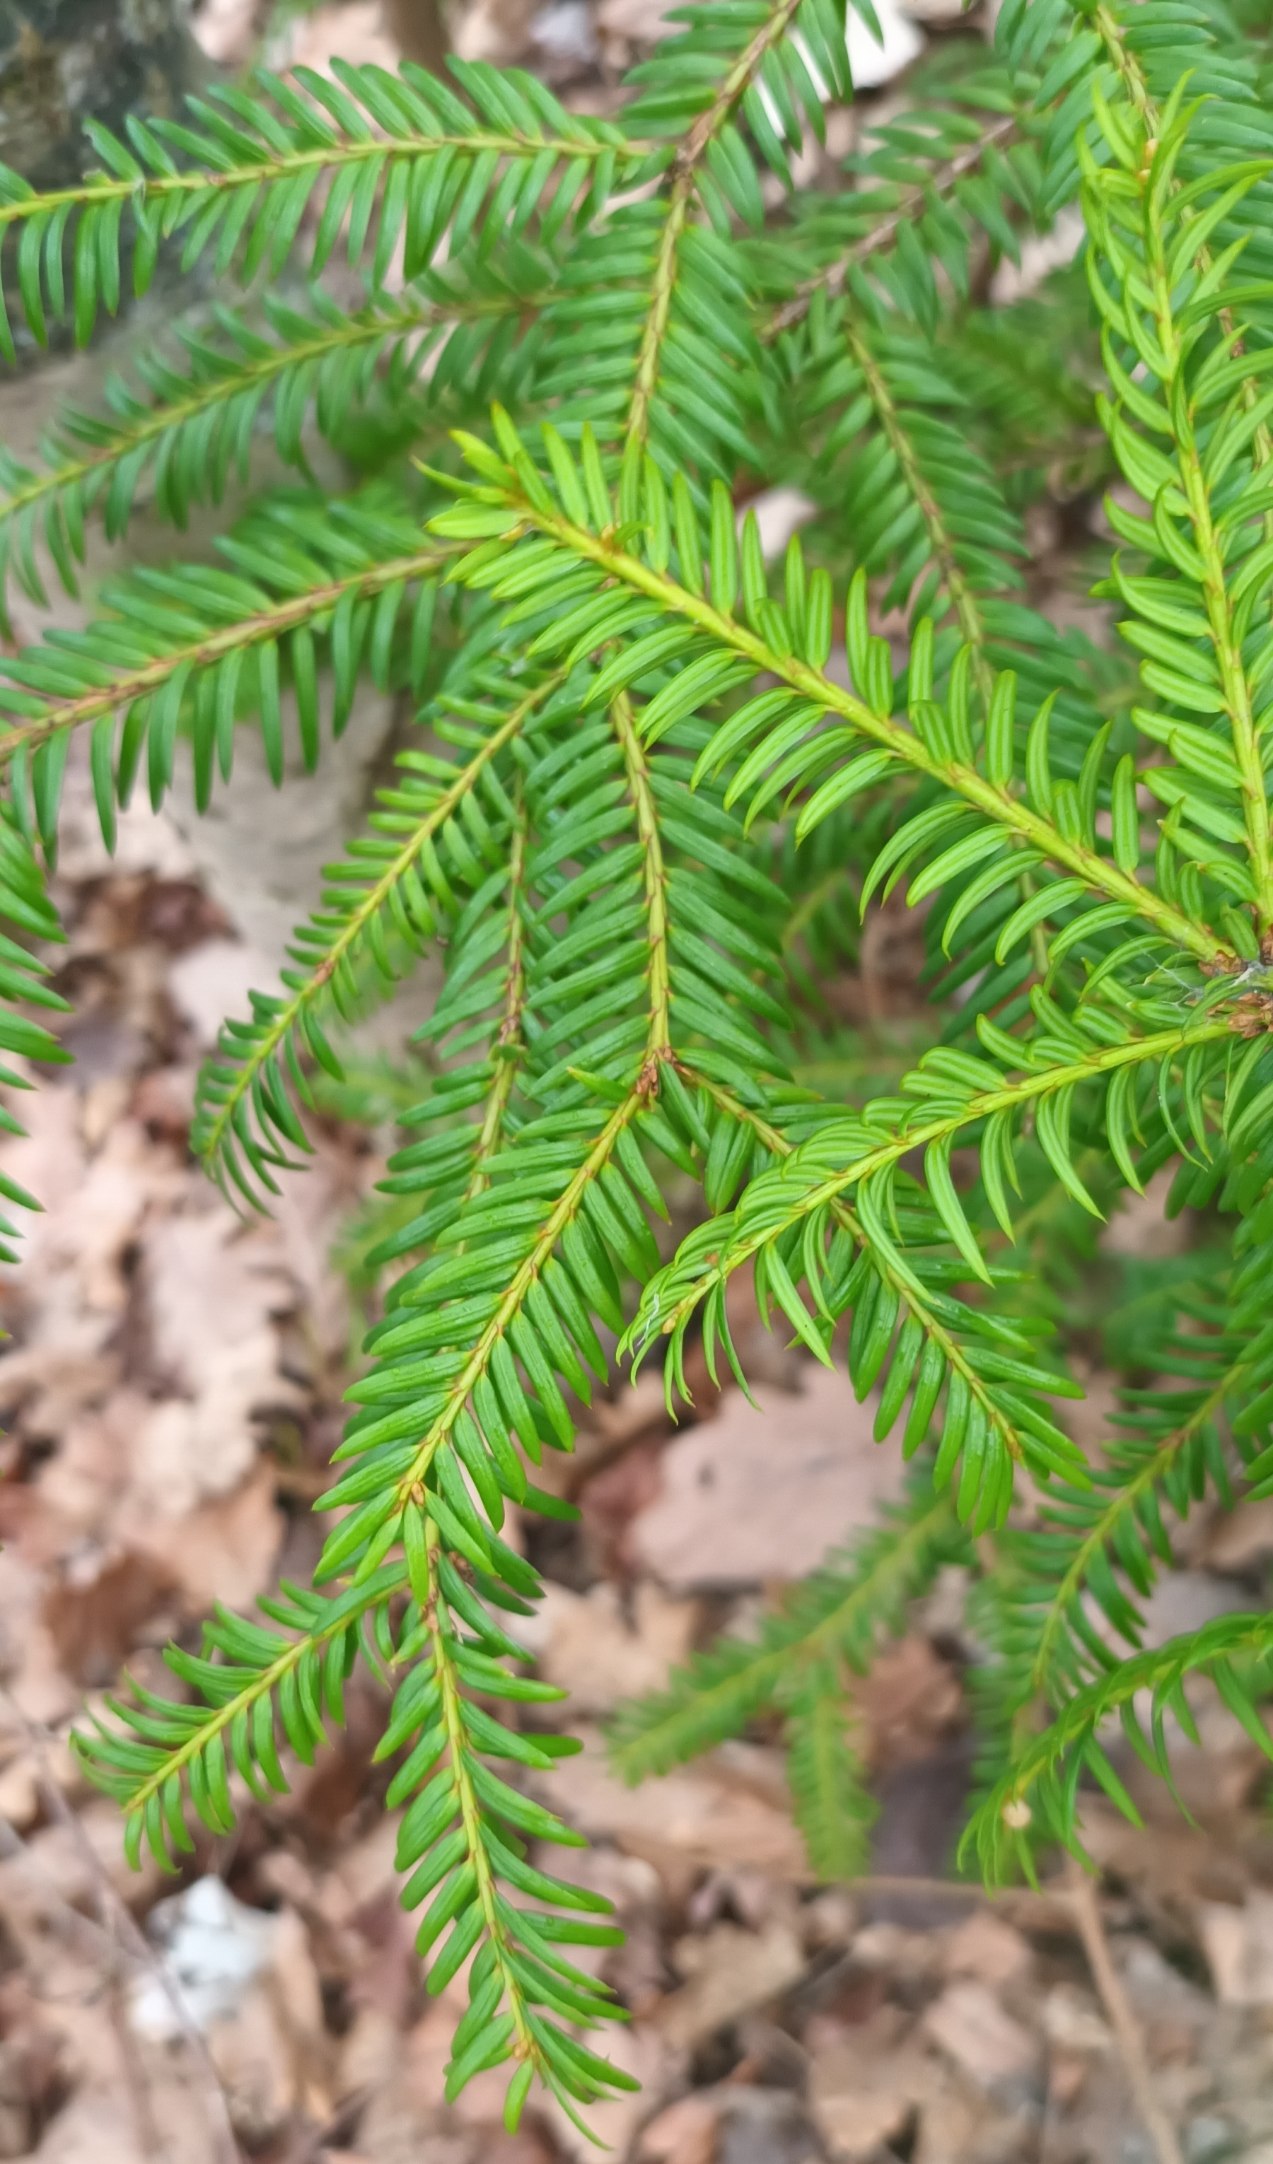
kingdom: Plantae
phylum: Tracheophyta
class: Pinopsida
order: Pinales
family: Taxaceae
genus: Taxus
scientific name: Taxus baccata
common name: Almindelig taks
